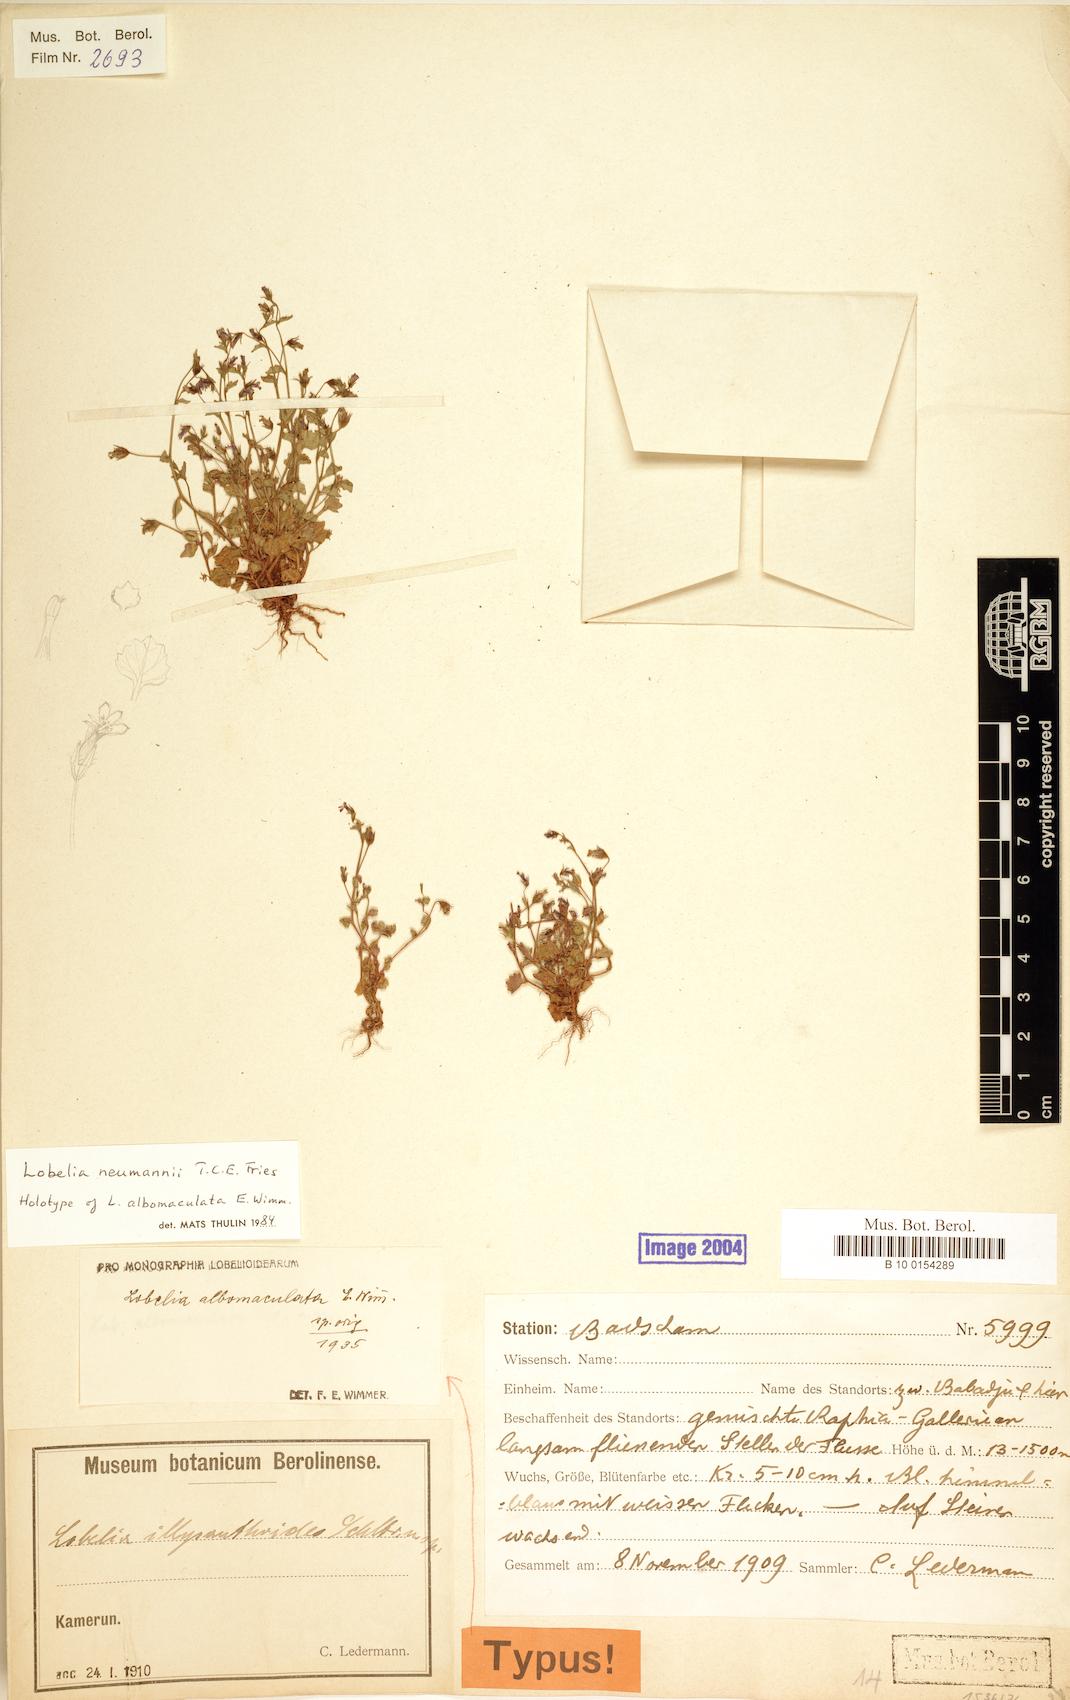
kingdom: Plantae
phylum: Tracheophyta
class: Magnoliopsida
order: Asterales
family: Campanulaceae
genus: Lobelia
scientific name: Lobelia neumannii
